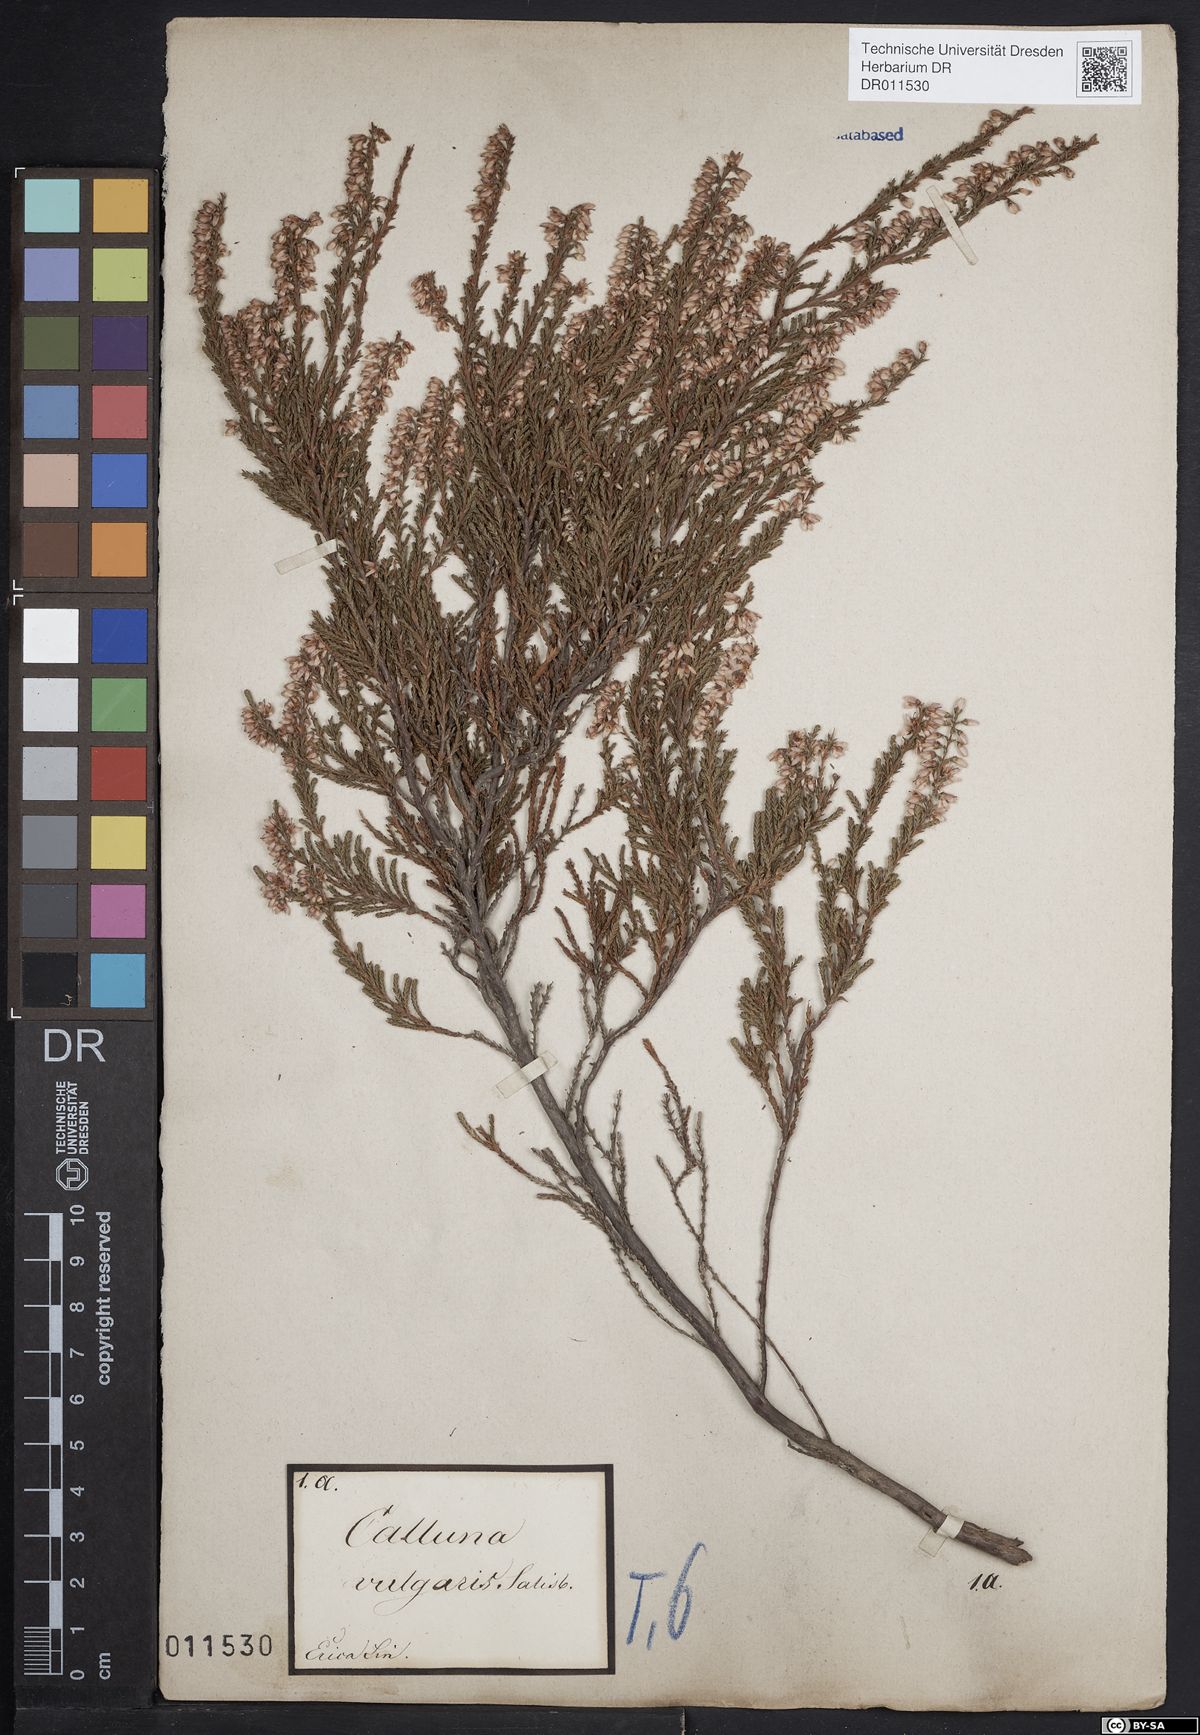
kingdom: Plantae
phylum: Tracheophyta
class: Magnoliopsida
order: Ericales
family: Ericaceae
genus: Calluna
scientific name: Calluna vulgaris
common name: Heather
